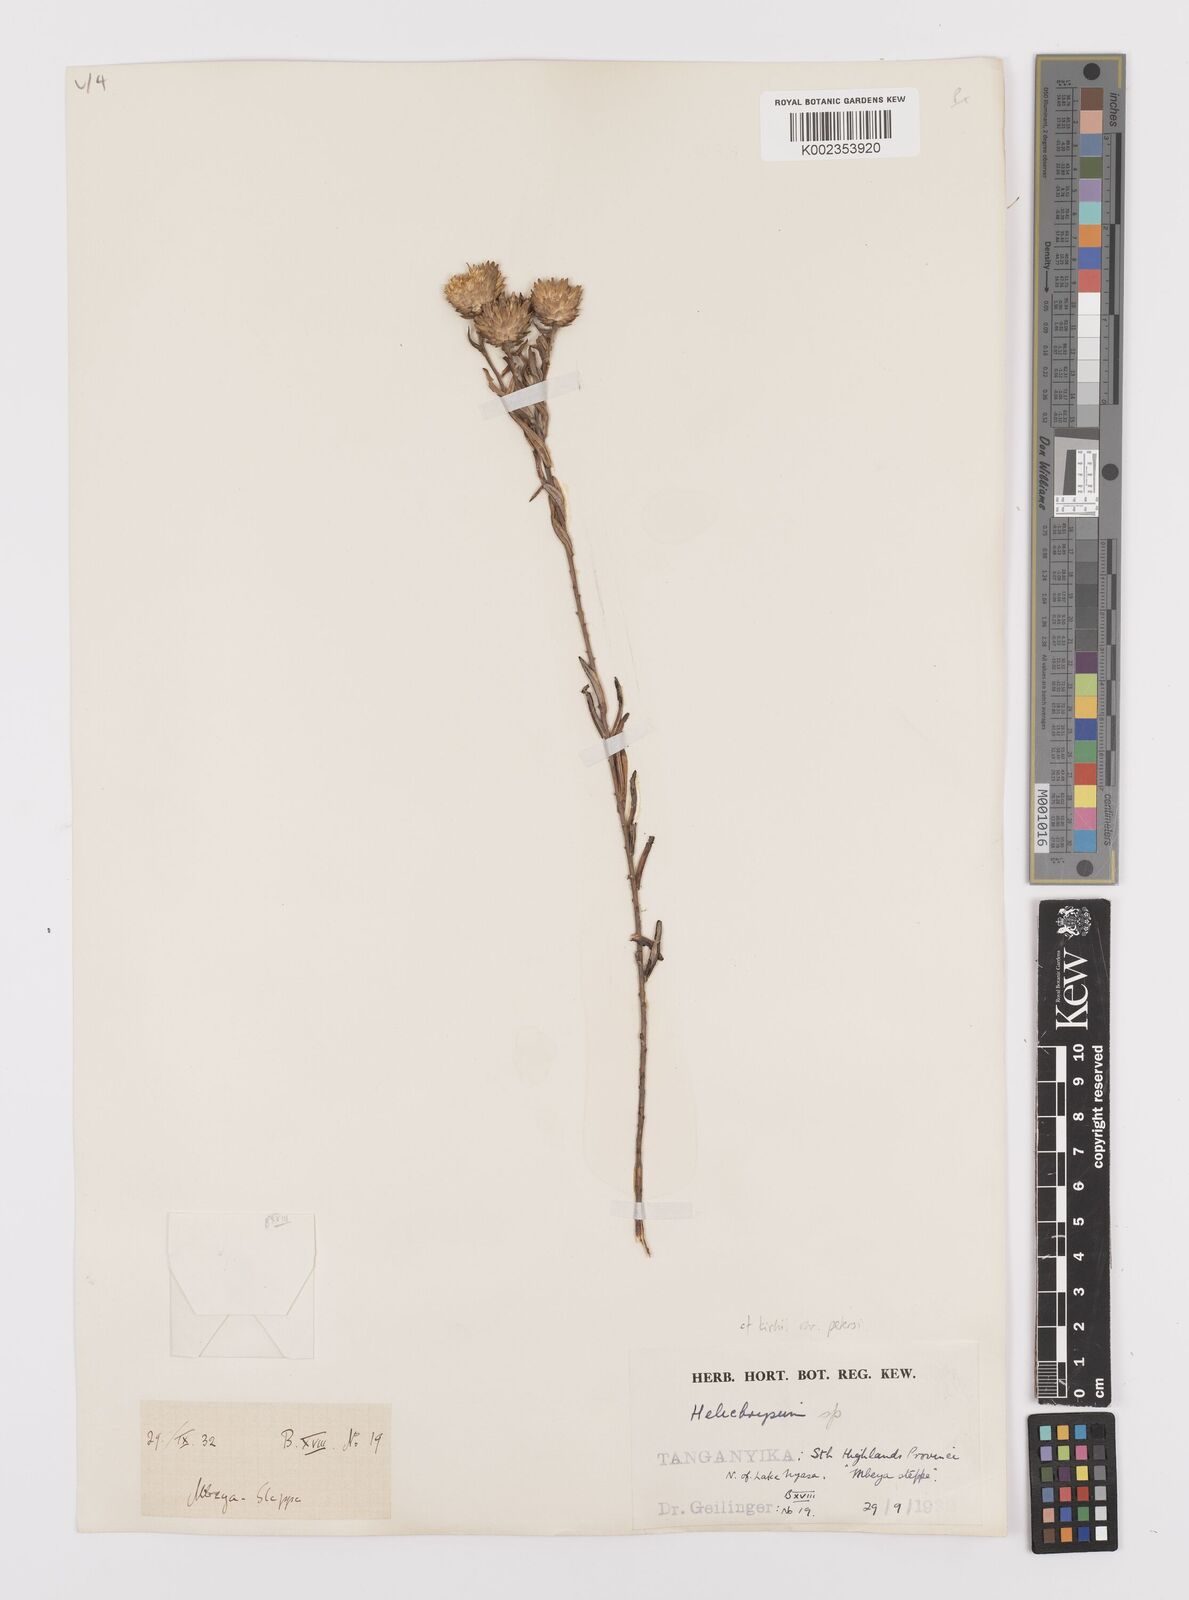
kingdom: Plantae
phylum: Tracheophyta
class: Magnoliopsida
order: Asterales
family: Asteraceae
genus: Helichrysum
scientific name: Helichrysum kirkii
